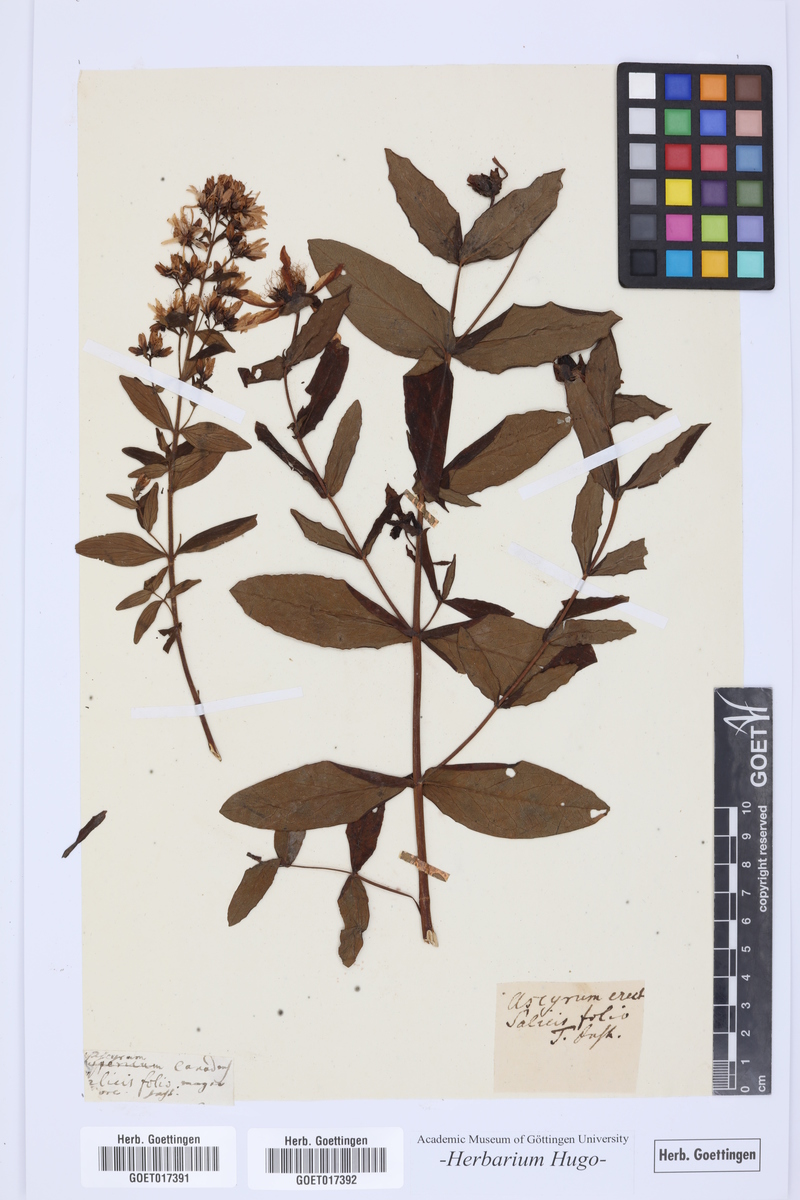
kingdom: Plantae
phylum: Tracheophyta
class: Magnoliopsida
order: Malpighiales
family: Hypericaceae
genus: Hypericum
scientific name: Hypericum
